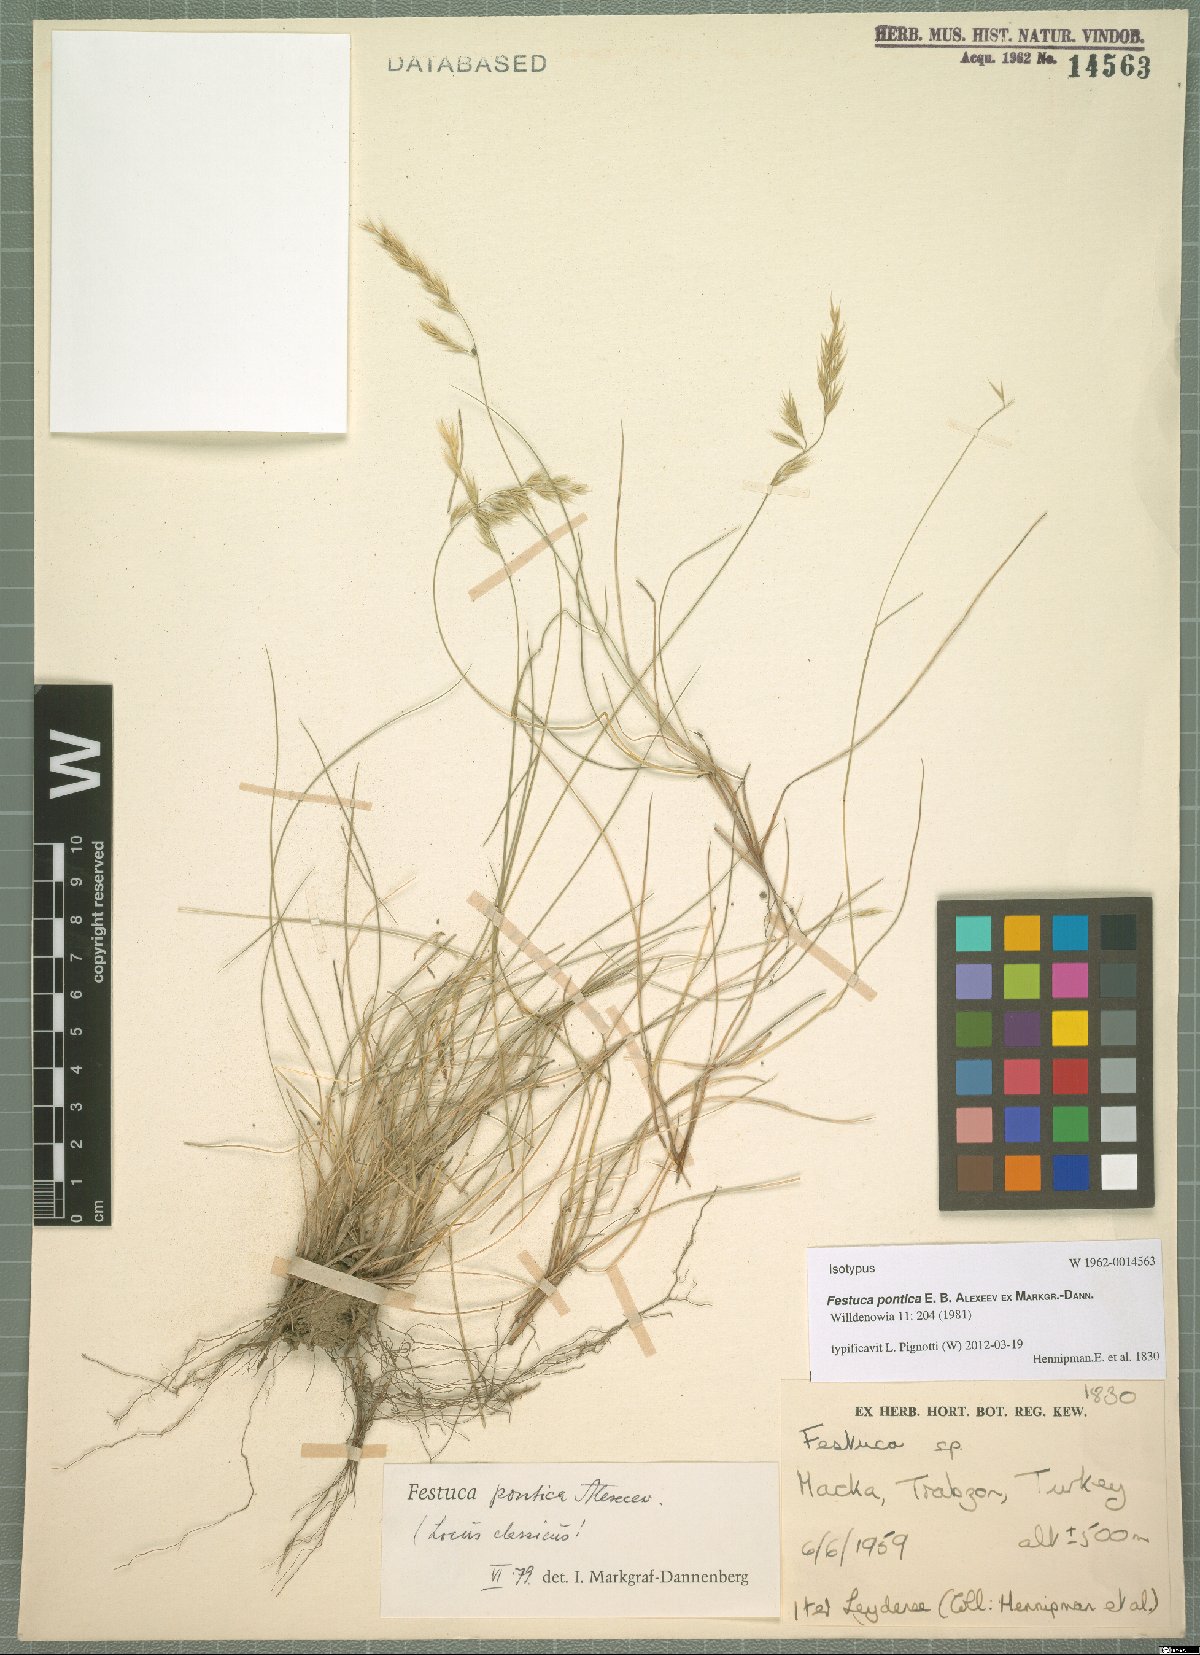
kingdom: Plantae
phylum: Tracheophyta
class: Liliopsida
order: Poales
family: Poaceae
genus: Festuca
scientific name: Festuca pontica
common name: Pontic fescue
